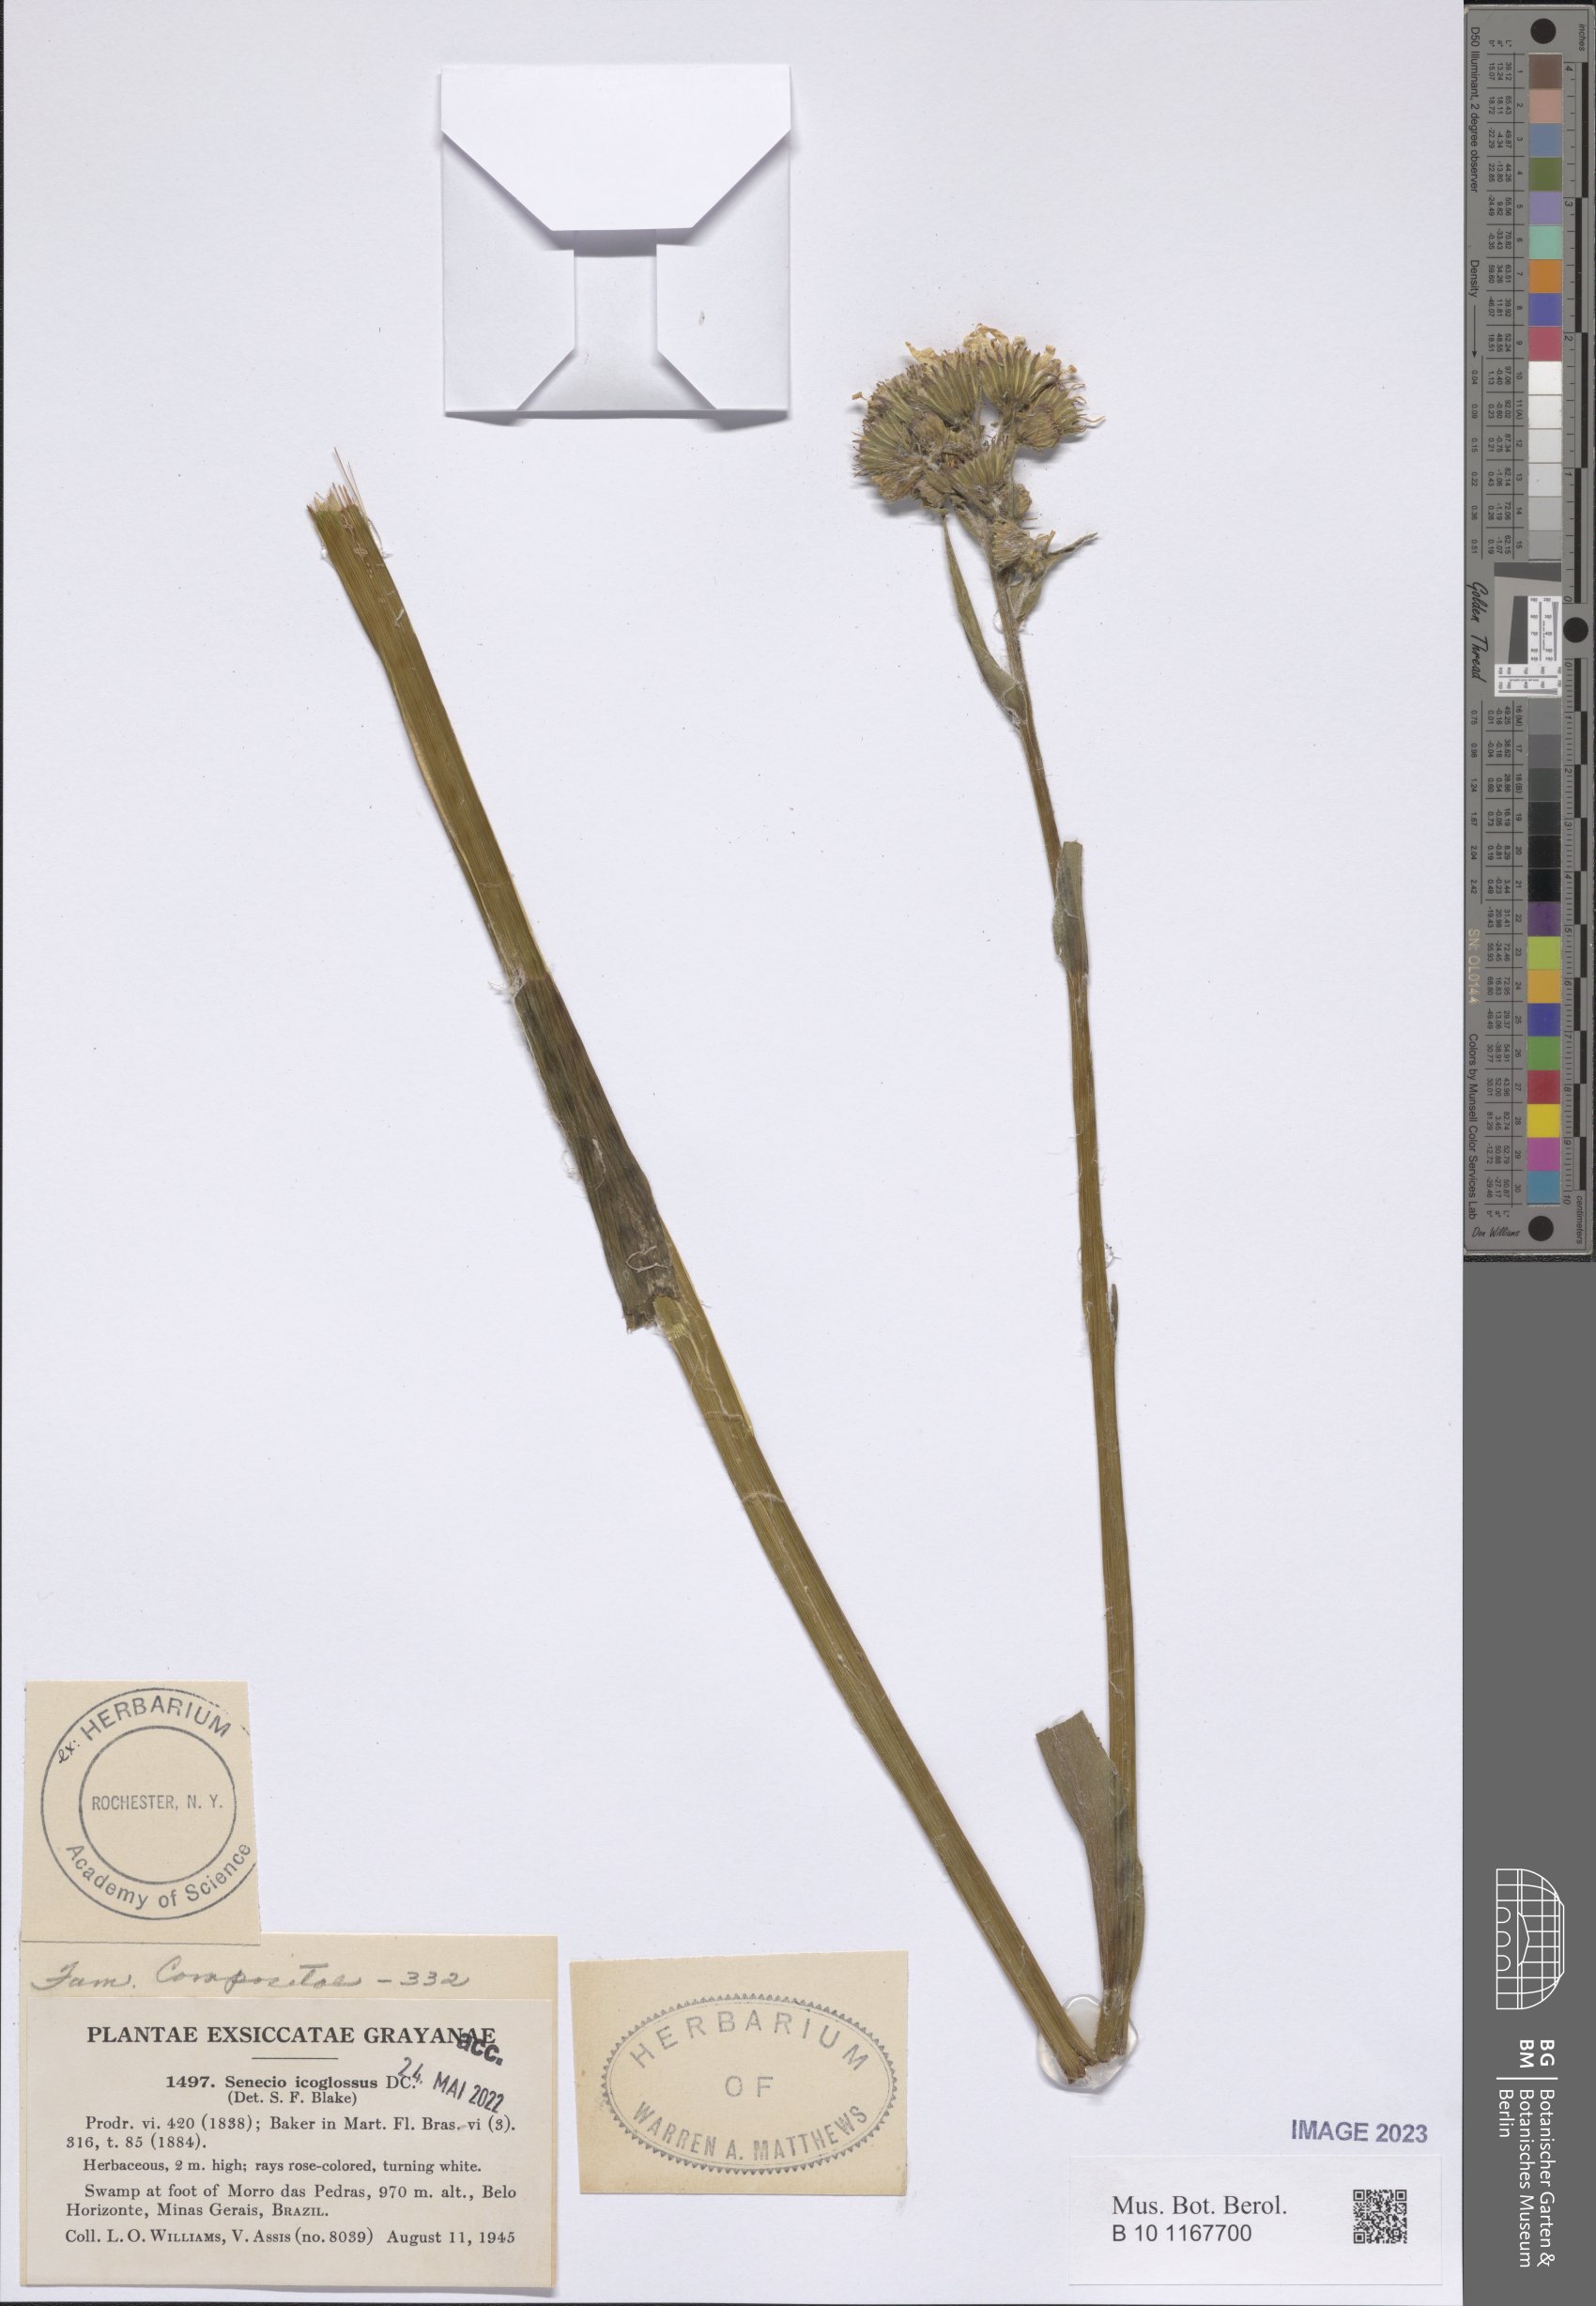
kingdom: Plantae
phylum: Tracheophyta
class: Magnoliopsida
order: Asterales
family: Asteraceae
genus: Senecio
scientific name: Senecio icoglossus
